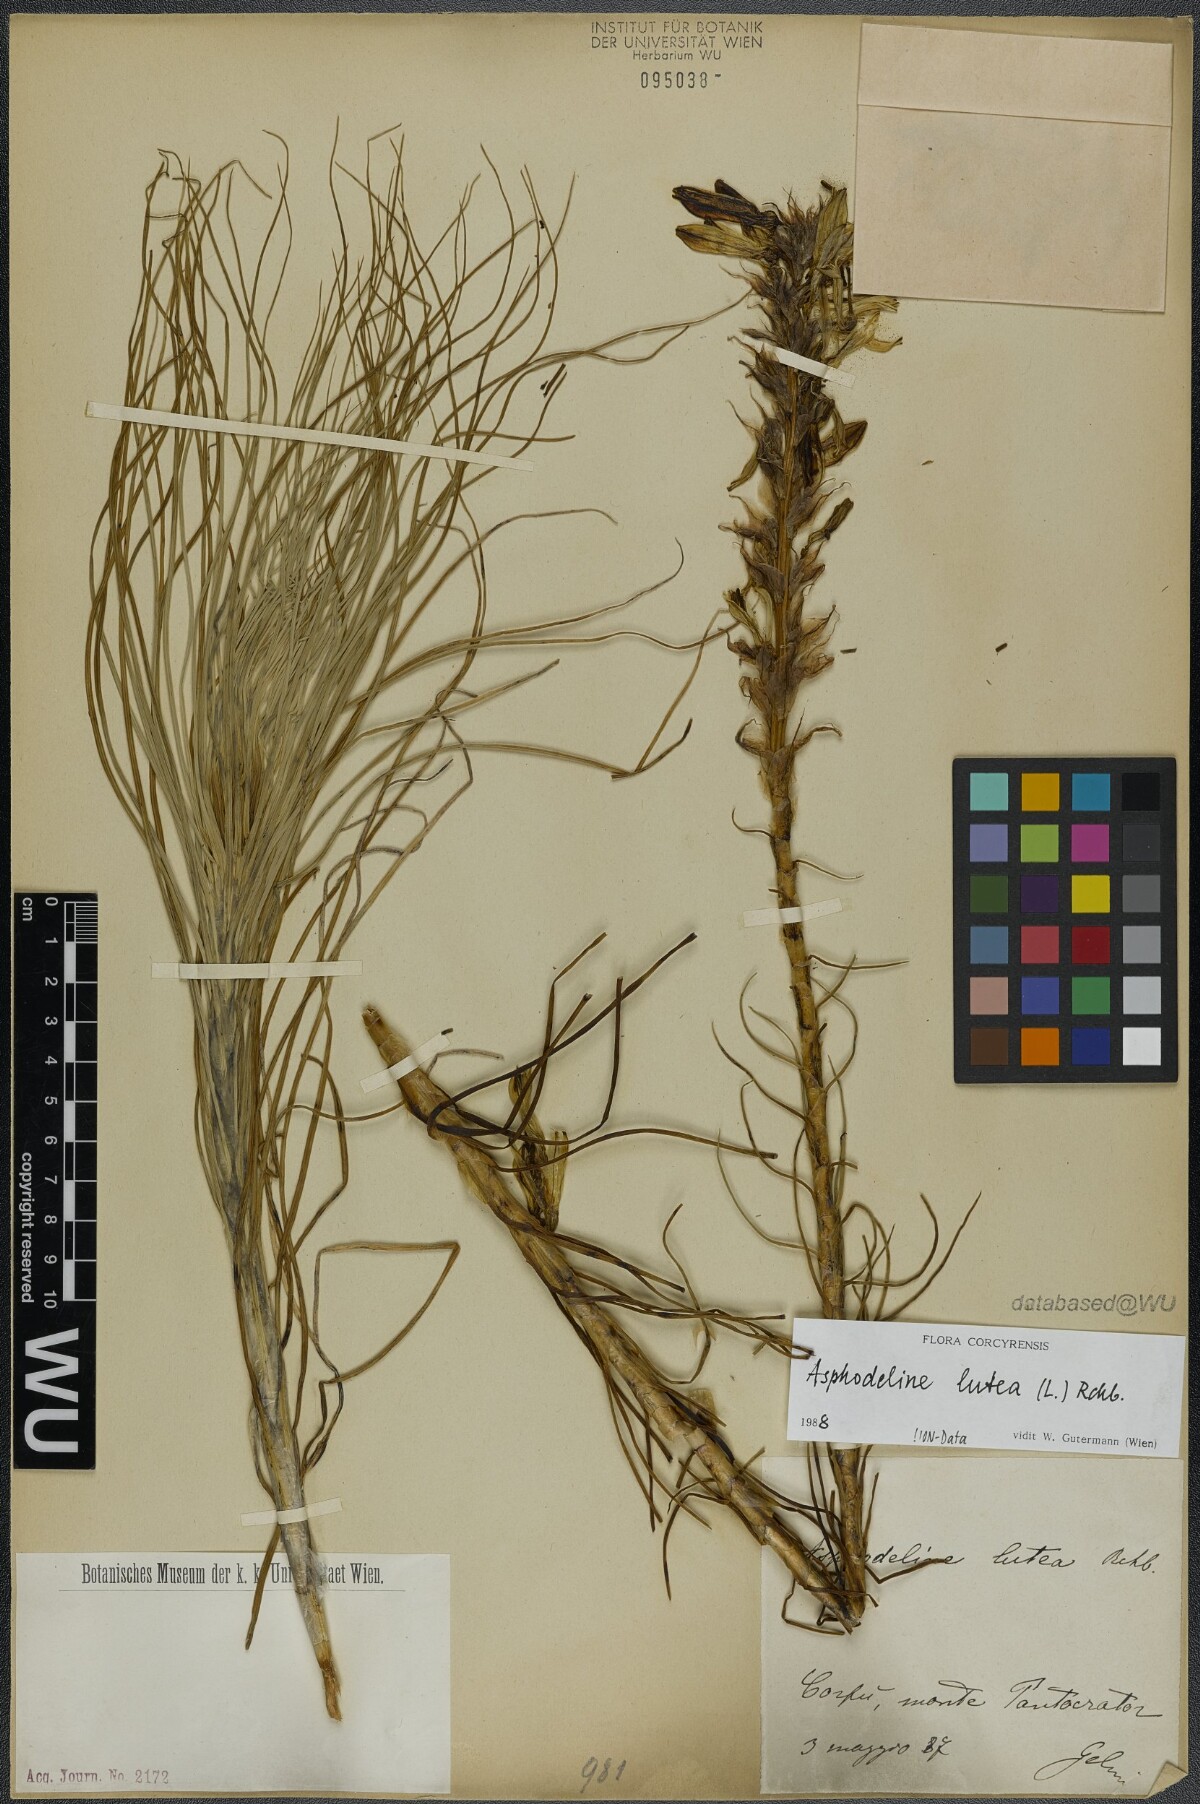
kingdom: Plantae
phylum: Tracheophyta
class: Liliopsida
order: Asparagales
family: Asphodelaceae
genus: Asphodeline
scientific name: Asphodeline lutea
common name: Yellow asphodel
